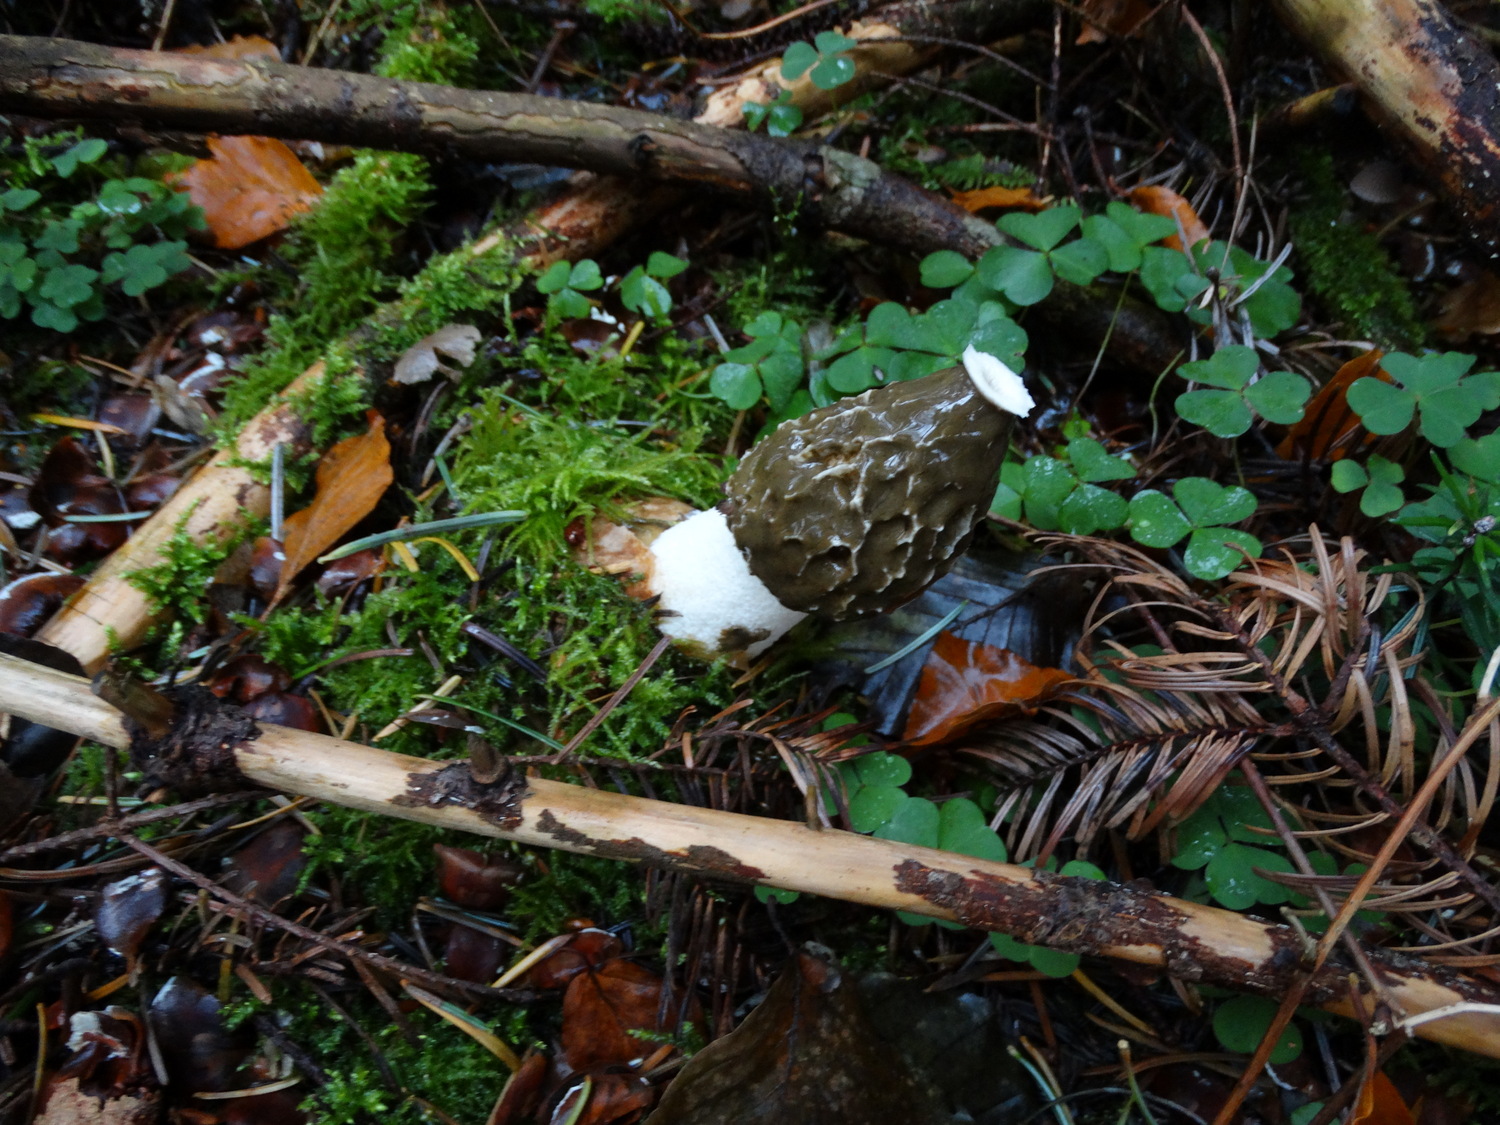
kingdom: Fungi
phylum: Basidiomycota
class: Agaricomycetes
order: Phallales
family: Phallaceae
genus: Phallus
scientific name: Phallus impudicus
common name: almindelig stinksvamp
